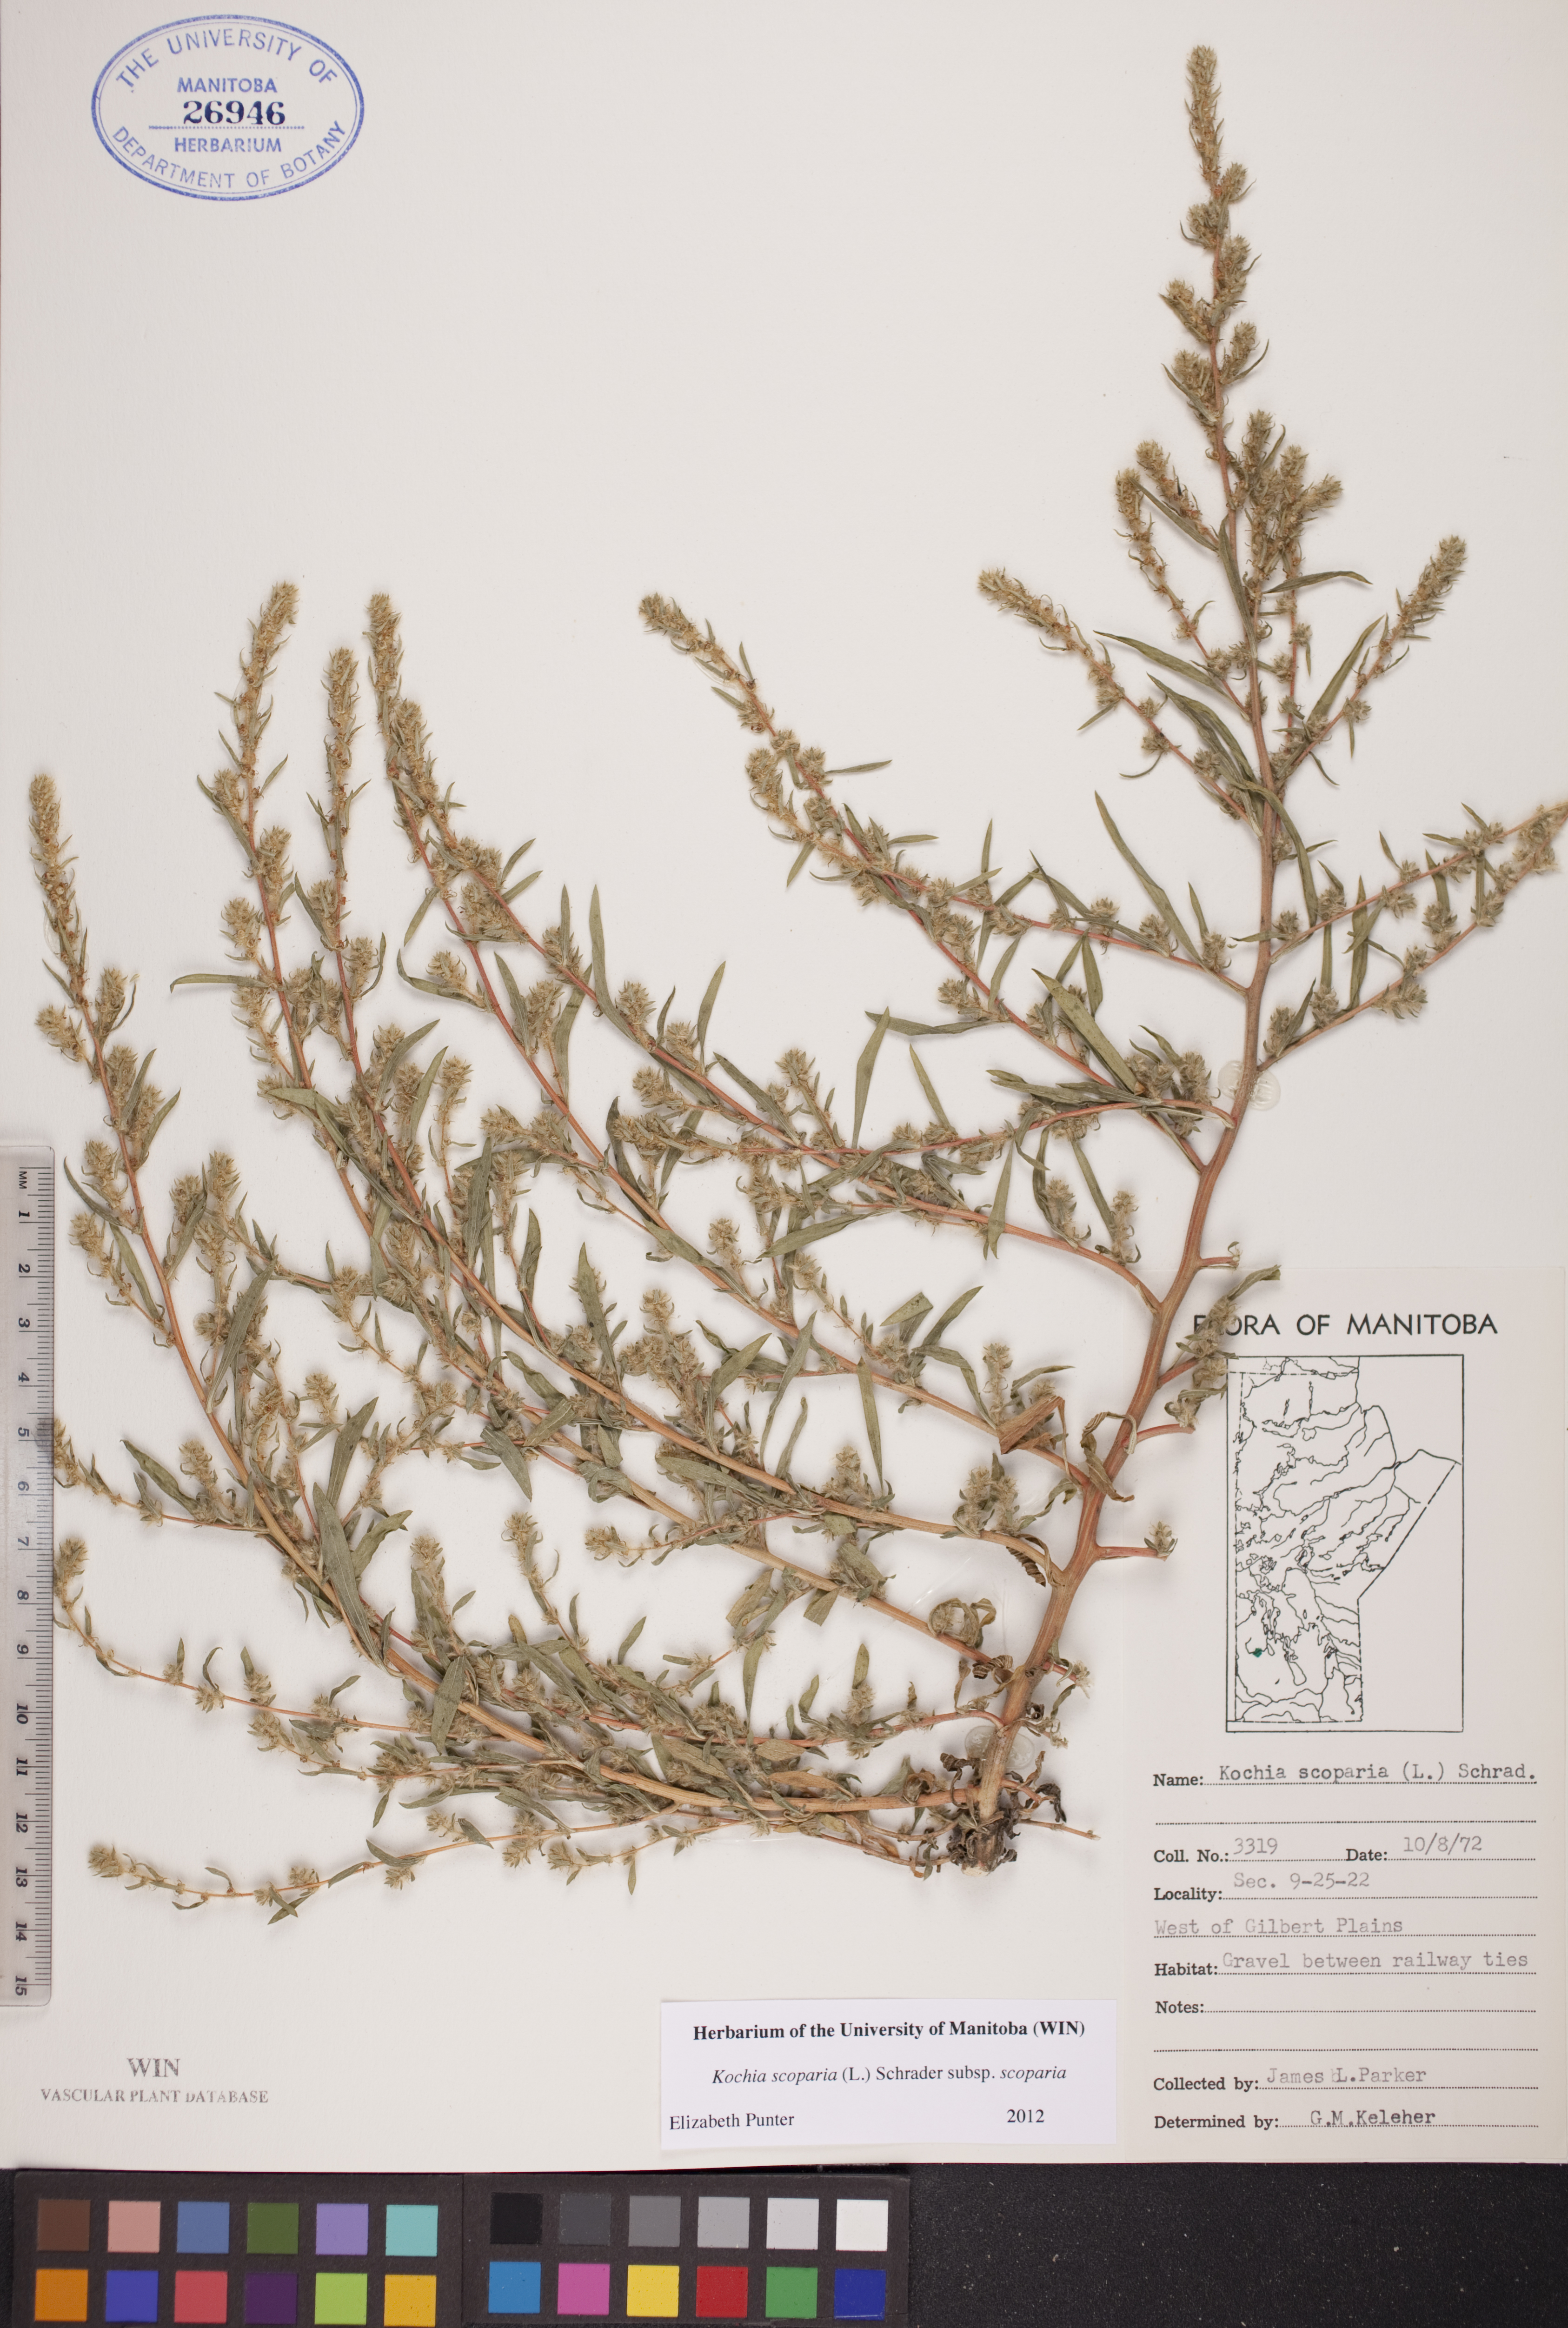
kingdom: Plantae
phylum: Tracheophyta
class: Magnoliopsida
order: Caryophyllales
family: Amaranthaceae
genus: Bassia
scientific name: Bassia scoparia
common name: Belvedere
